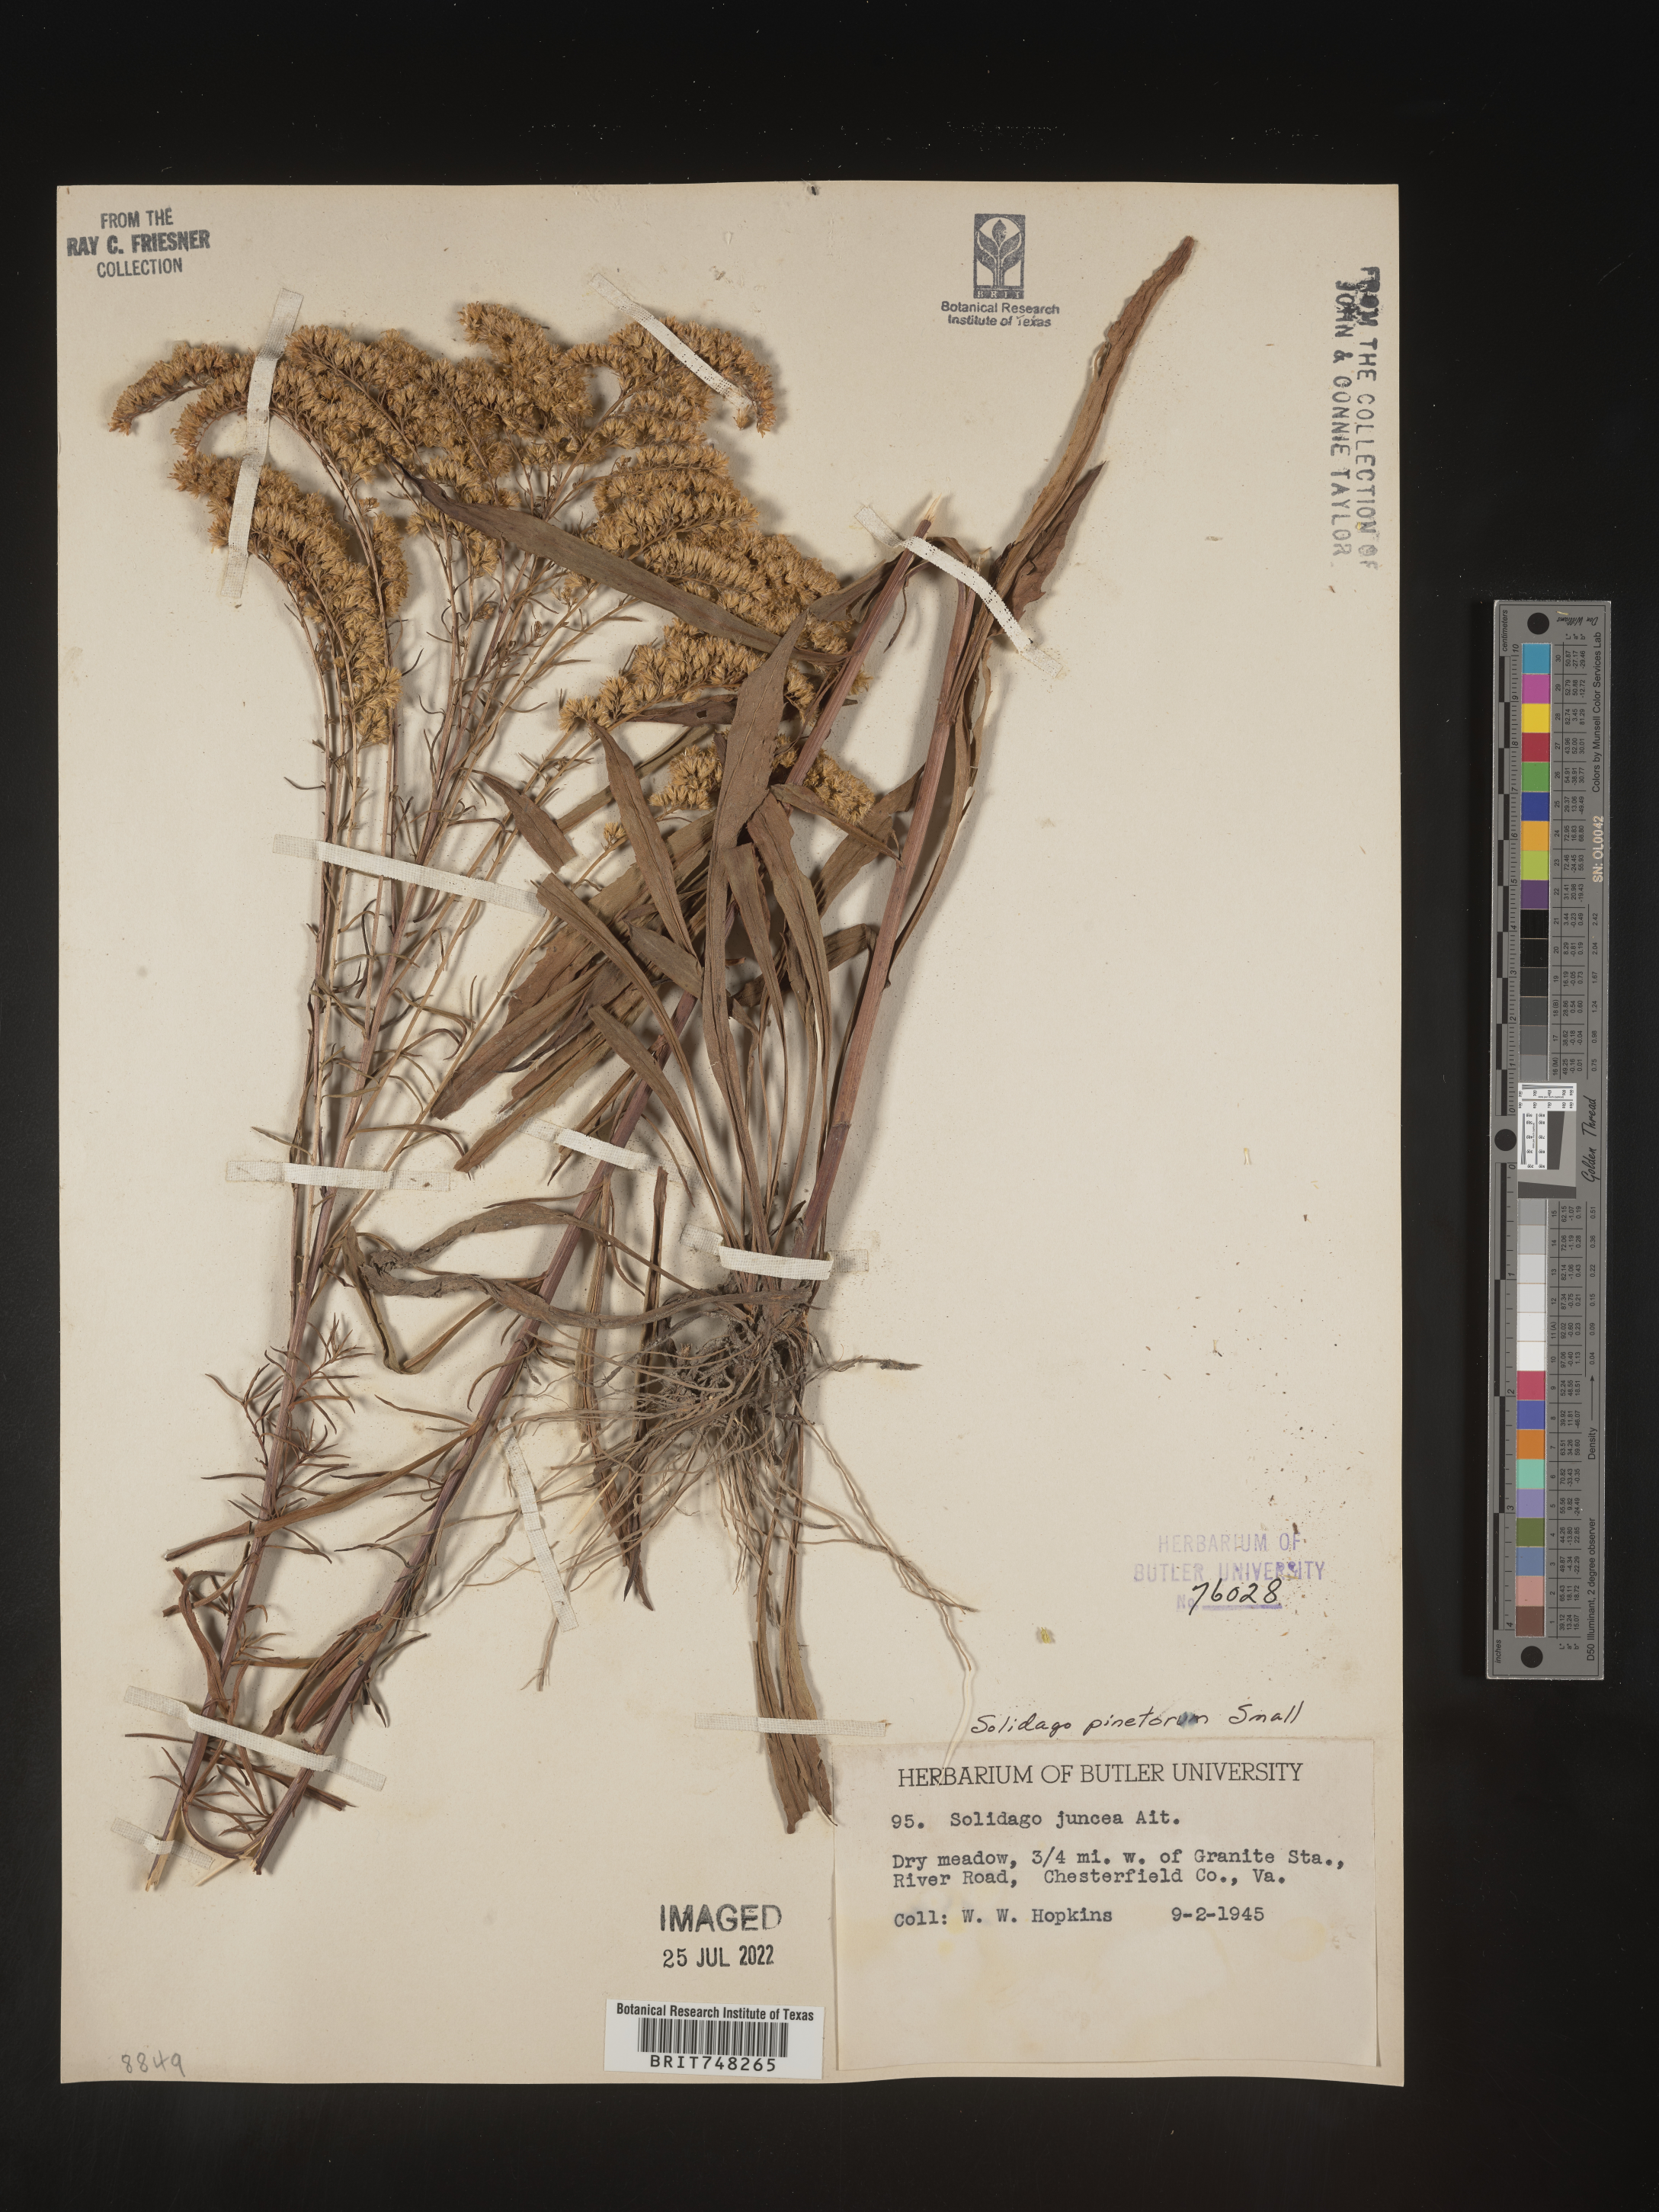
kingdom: Plantae
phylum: Tracheophyta
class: Magnoliopsida
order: Asterales
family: Asteraceae
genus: Solidago
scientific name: Solidago pinetorum
